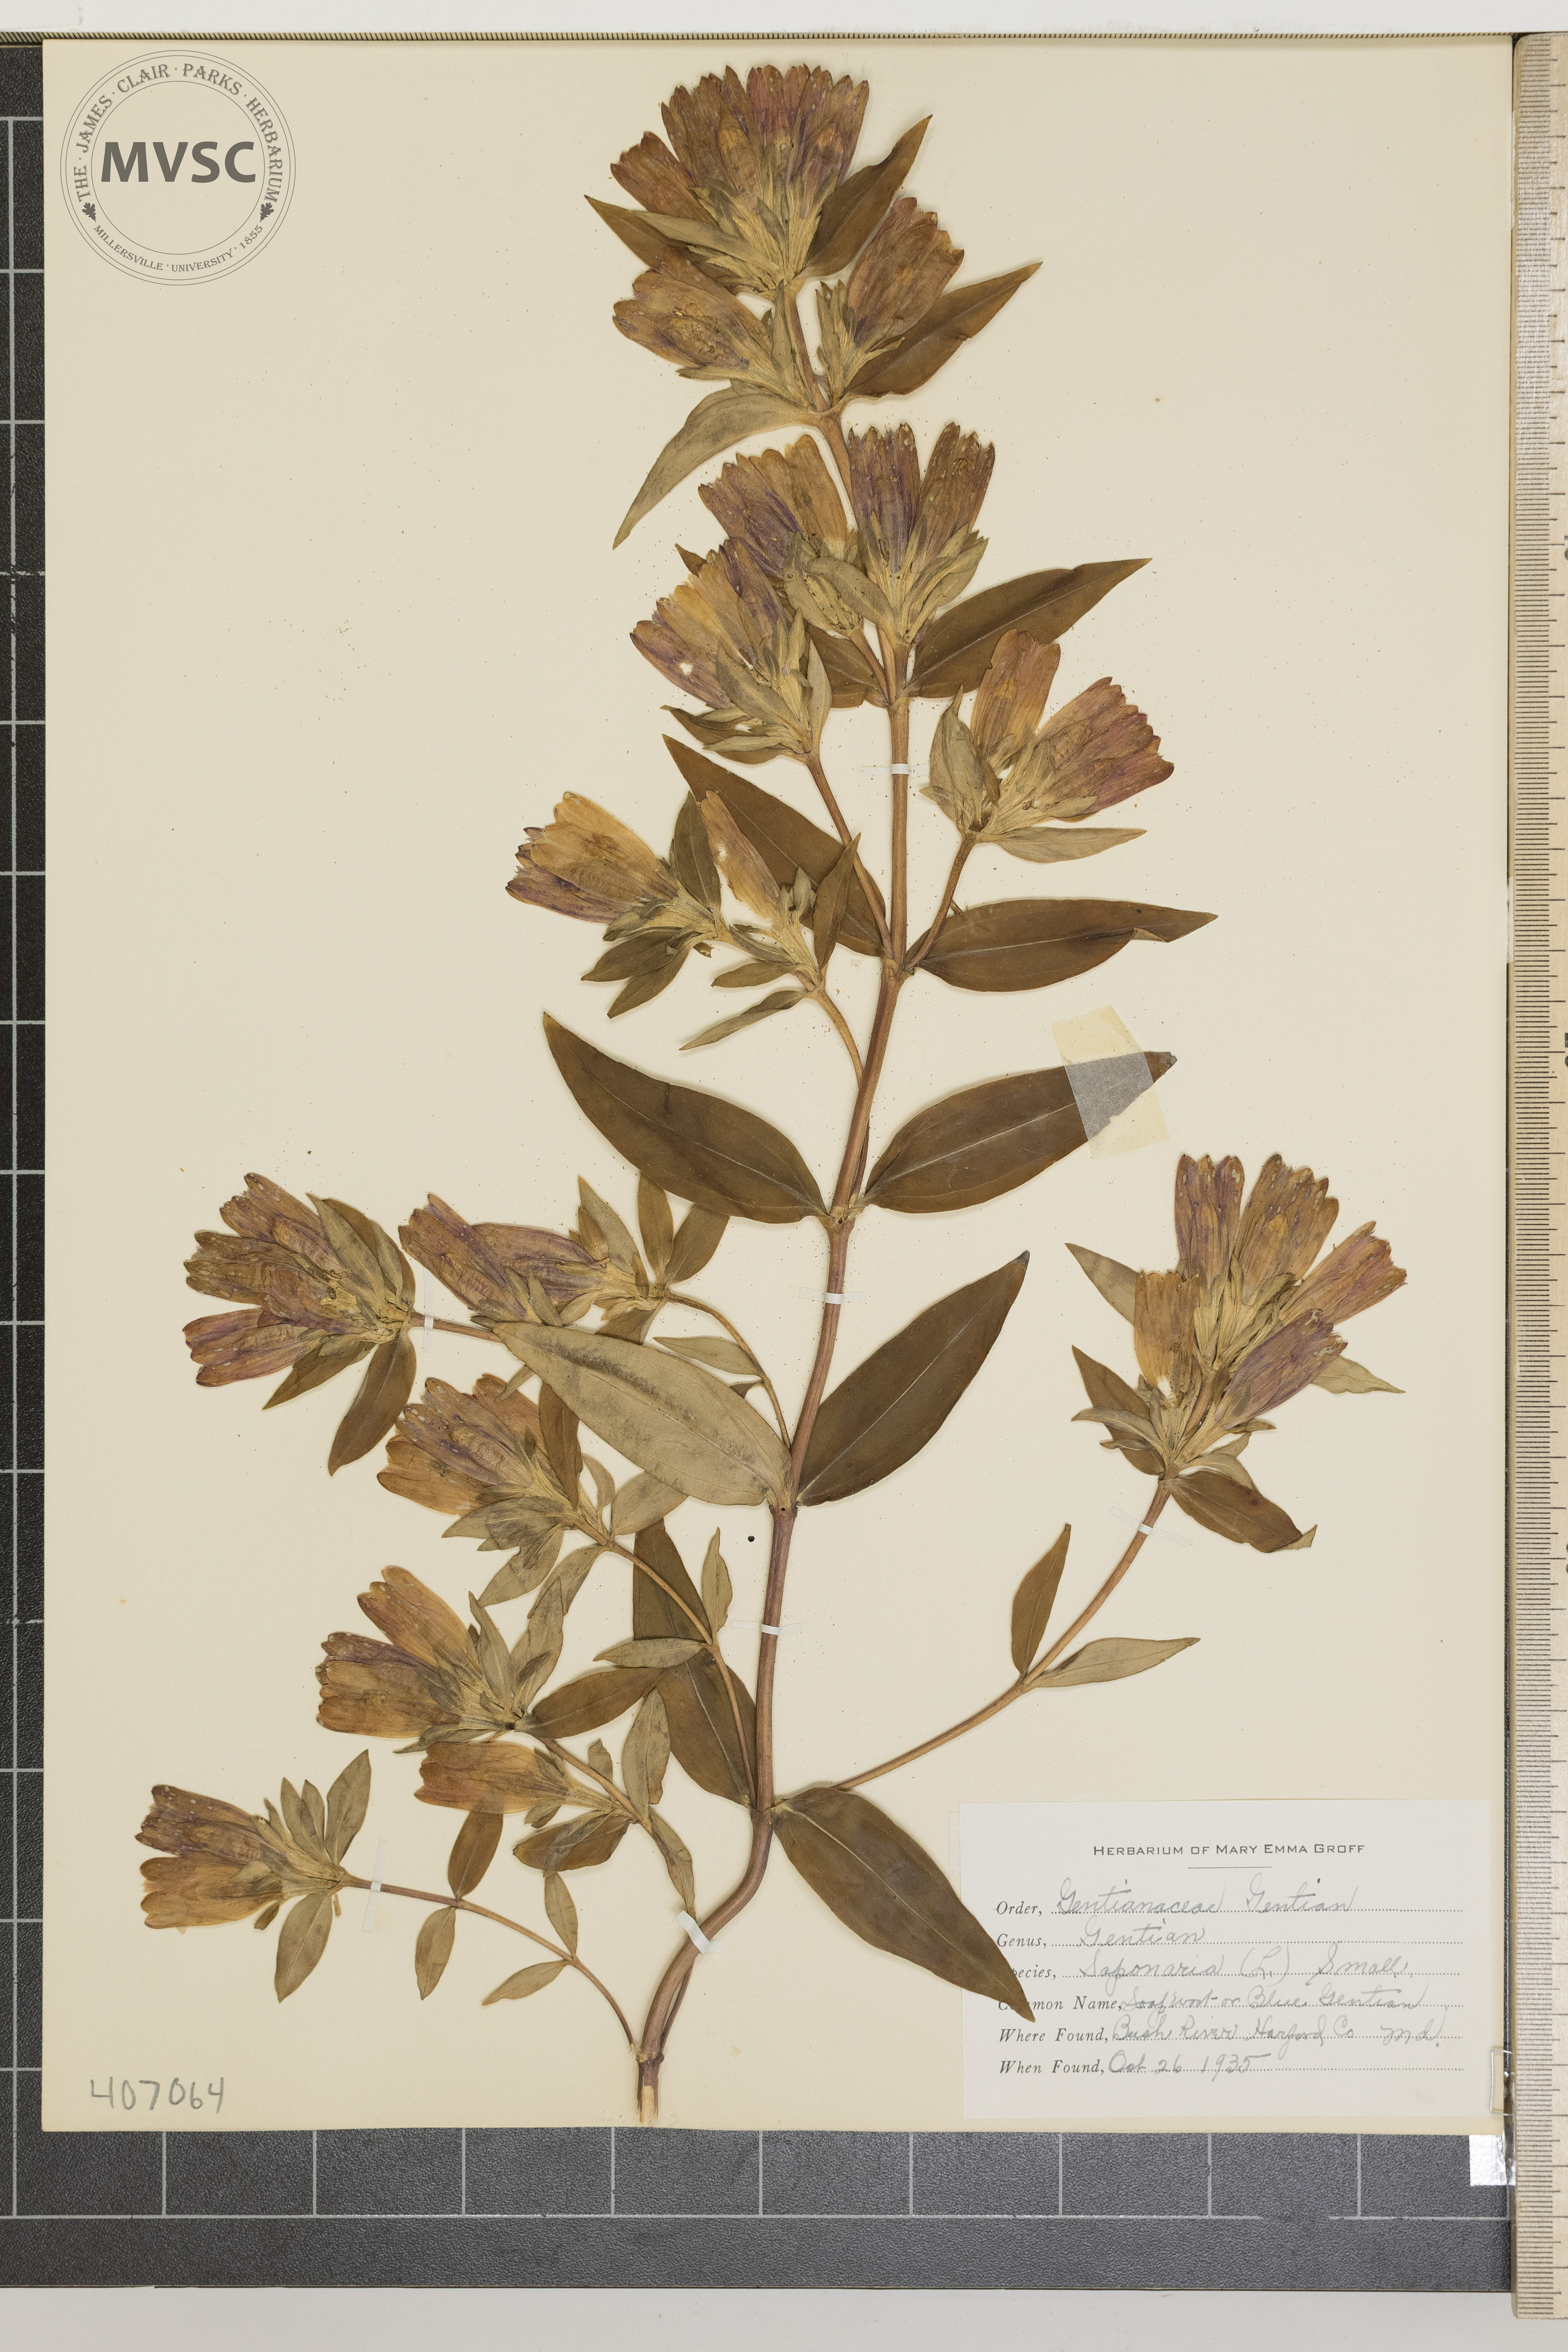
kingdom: Plantae
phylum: Tracheophyta
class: Magnoliopsida
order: Gentianales
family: Gentianaceae
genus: Gentiana
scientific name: Gentiana saponaria
